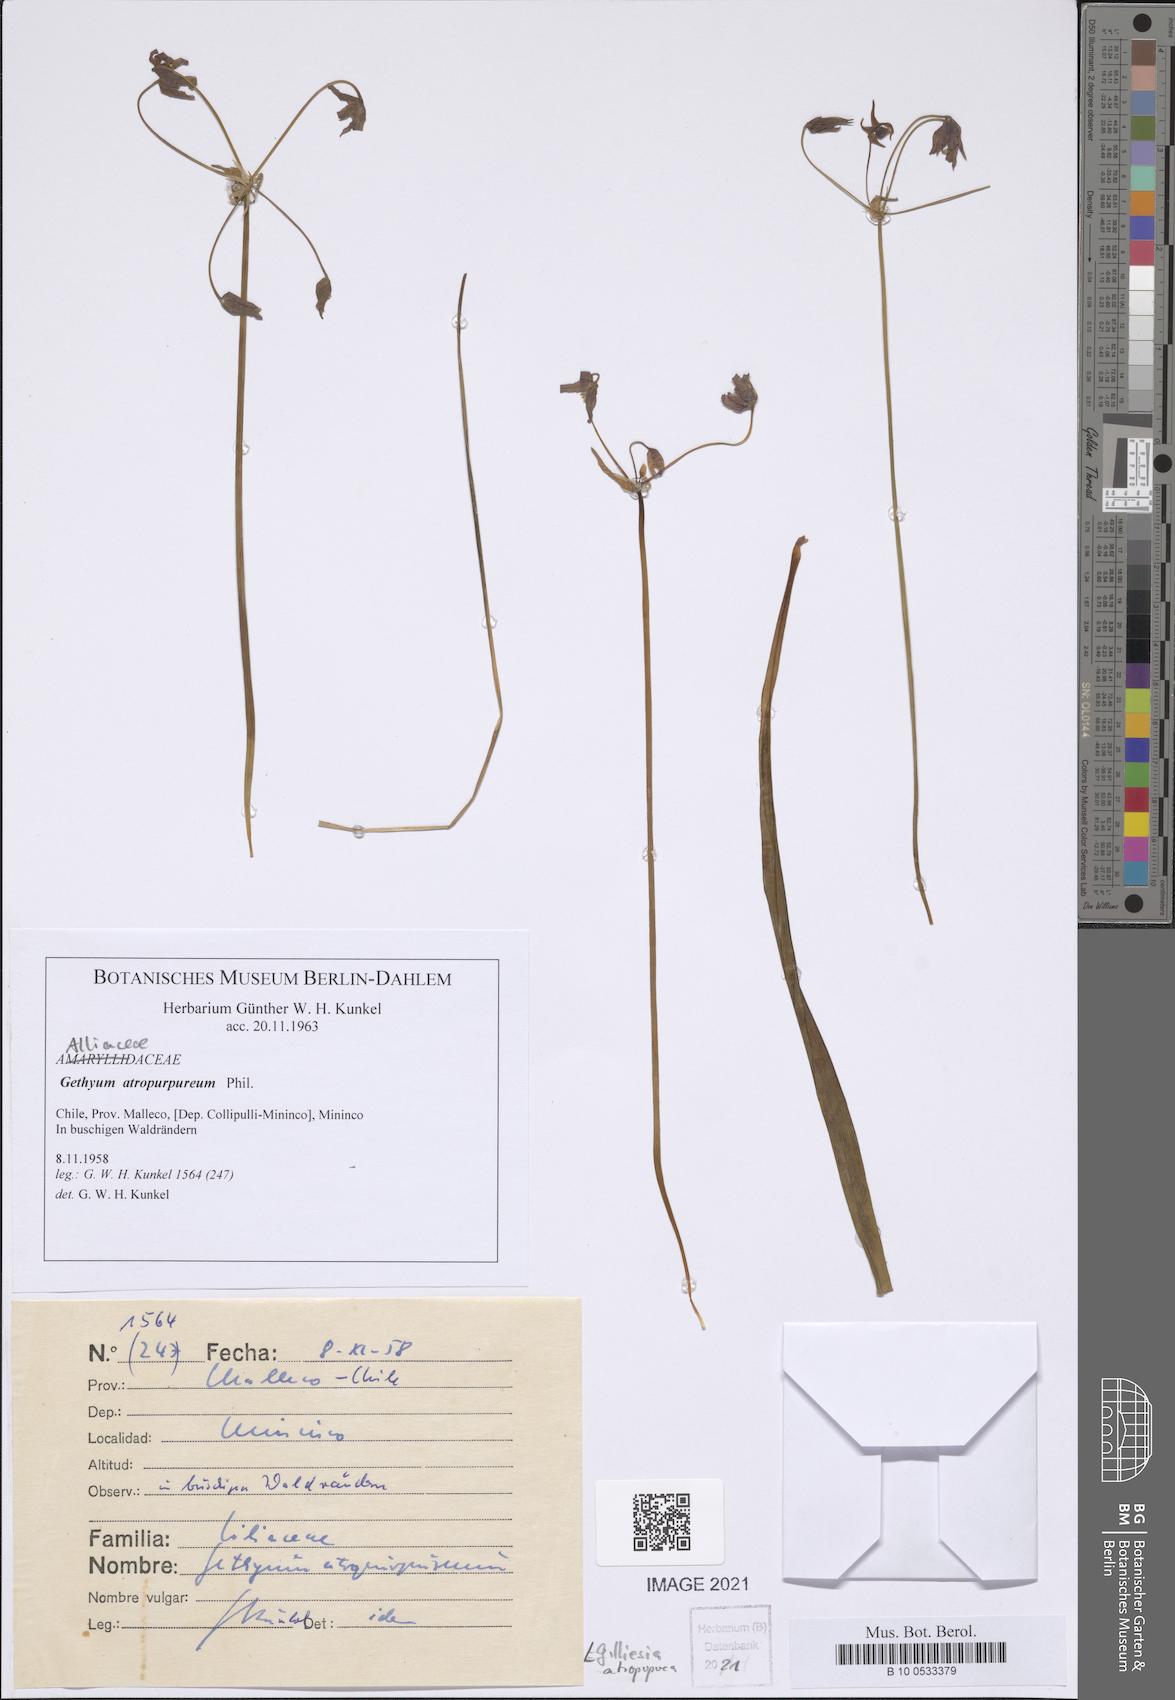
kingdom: Plantae
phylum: Tracheophyta
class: Liliopsida
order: Asparagales
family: Amaryllidaceae
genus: Gilliesia
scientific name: Gilliesia atropurpurea
